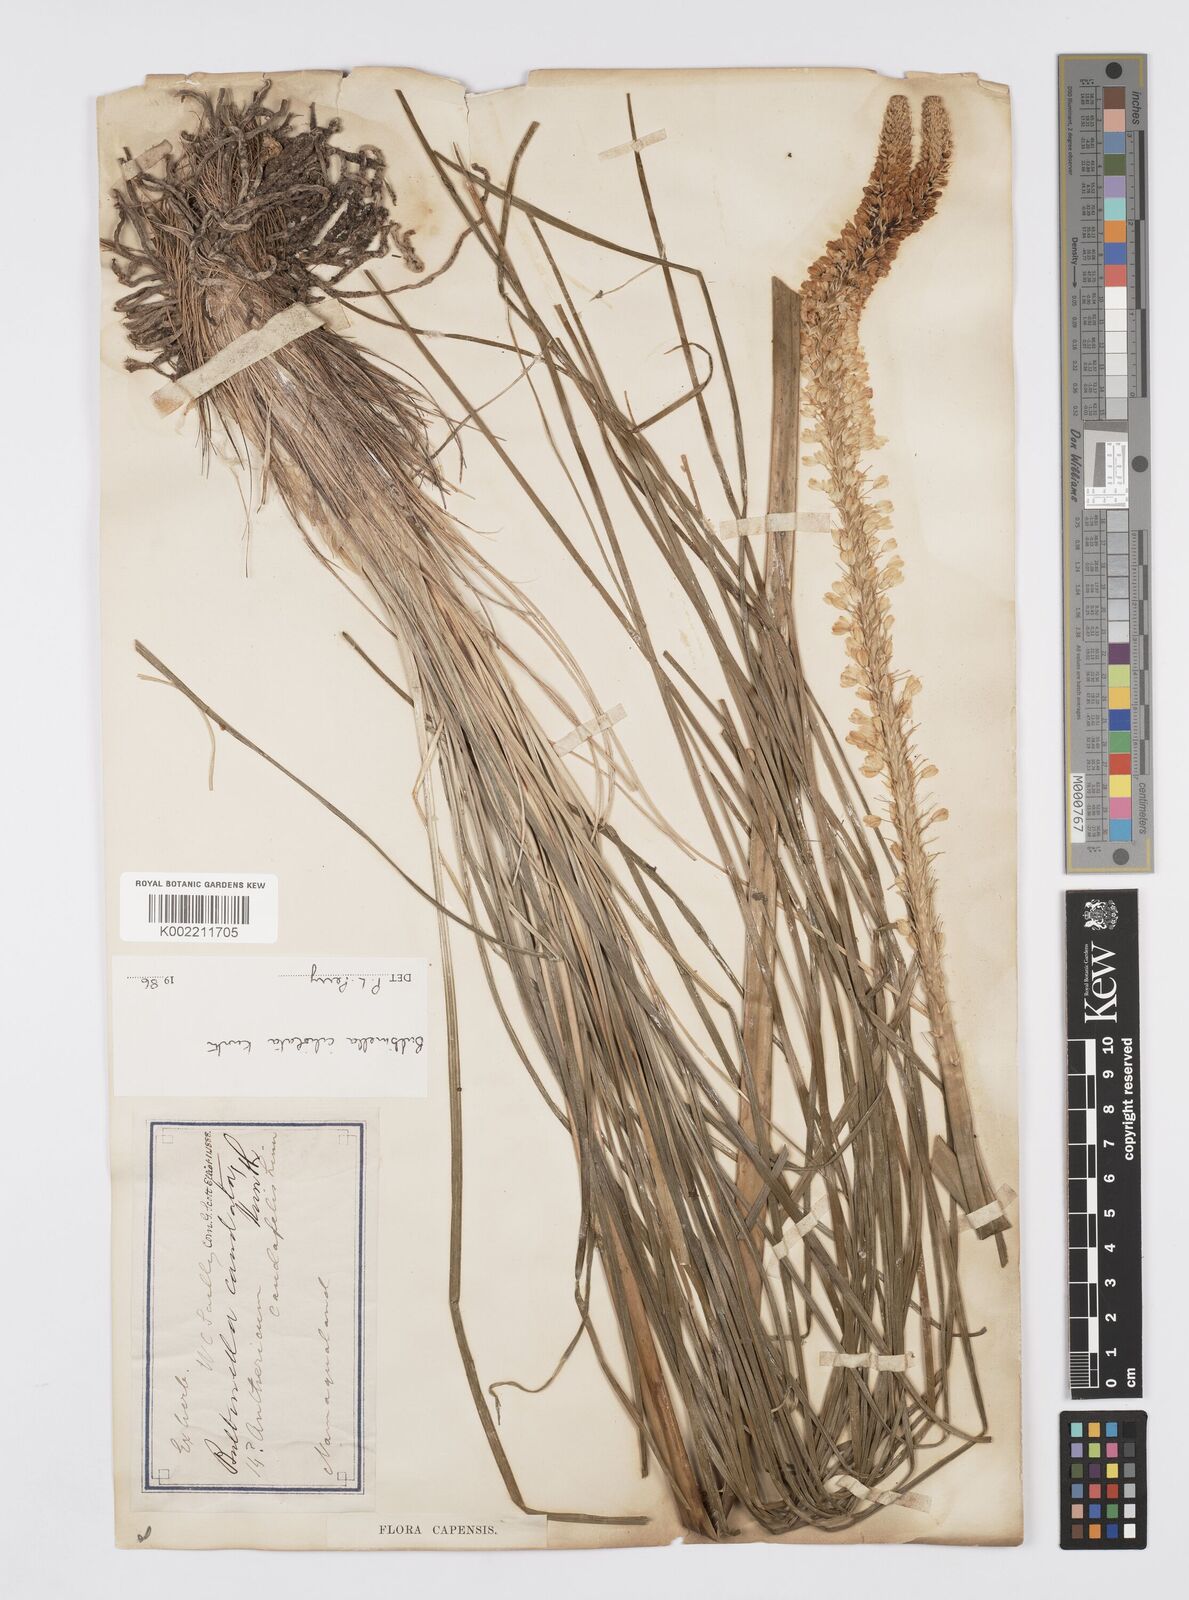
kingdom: Plantae
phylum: Tracheophyta
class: Liliopsida
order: Asparagales
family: Asphodelaceae
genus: Bulbinella
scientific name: Bulbinella ciliolata
